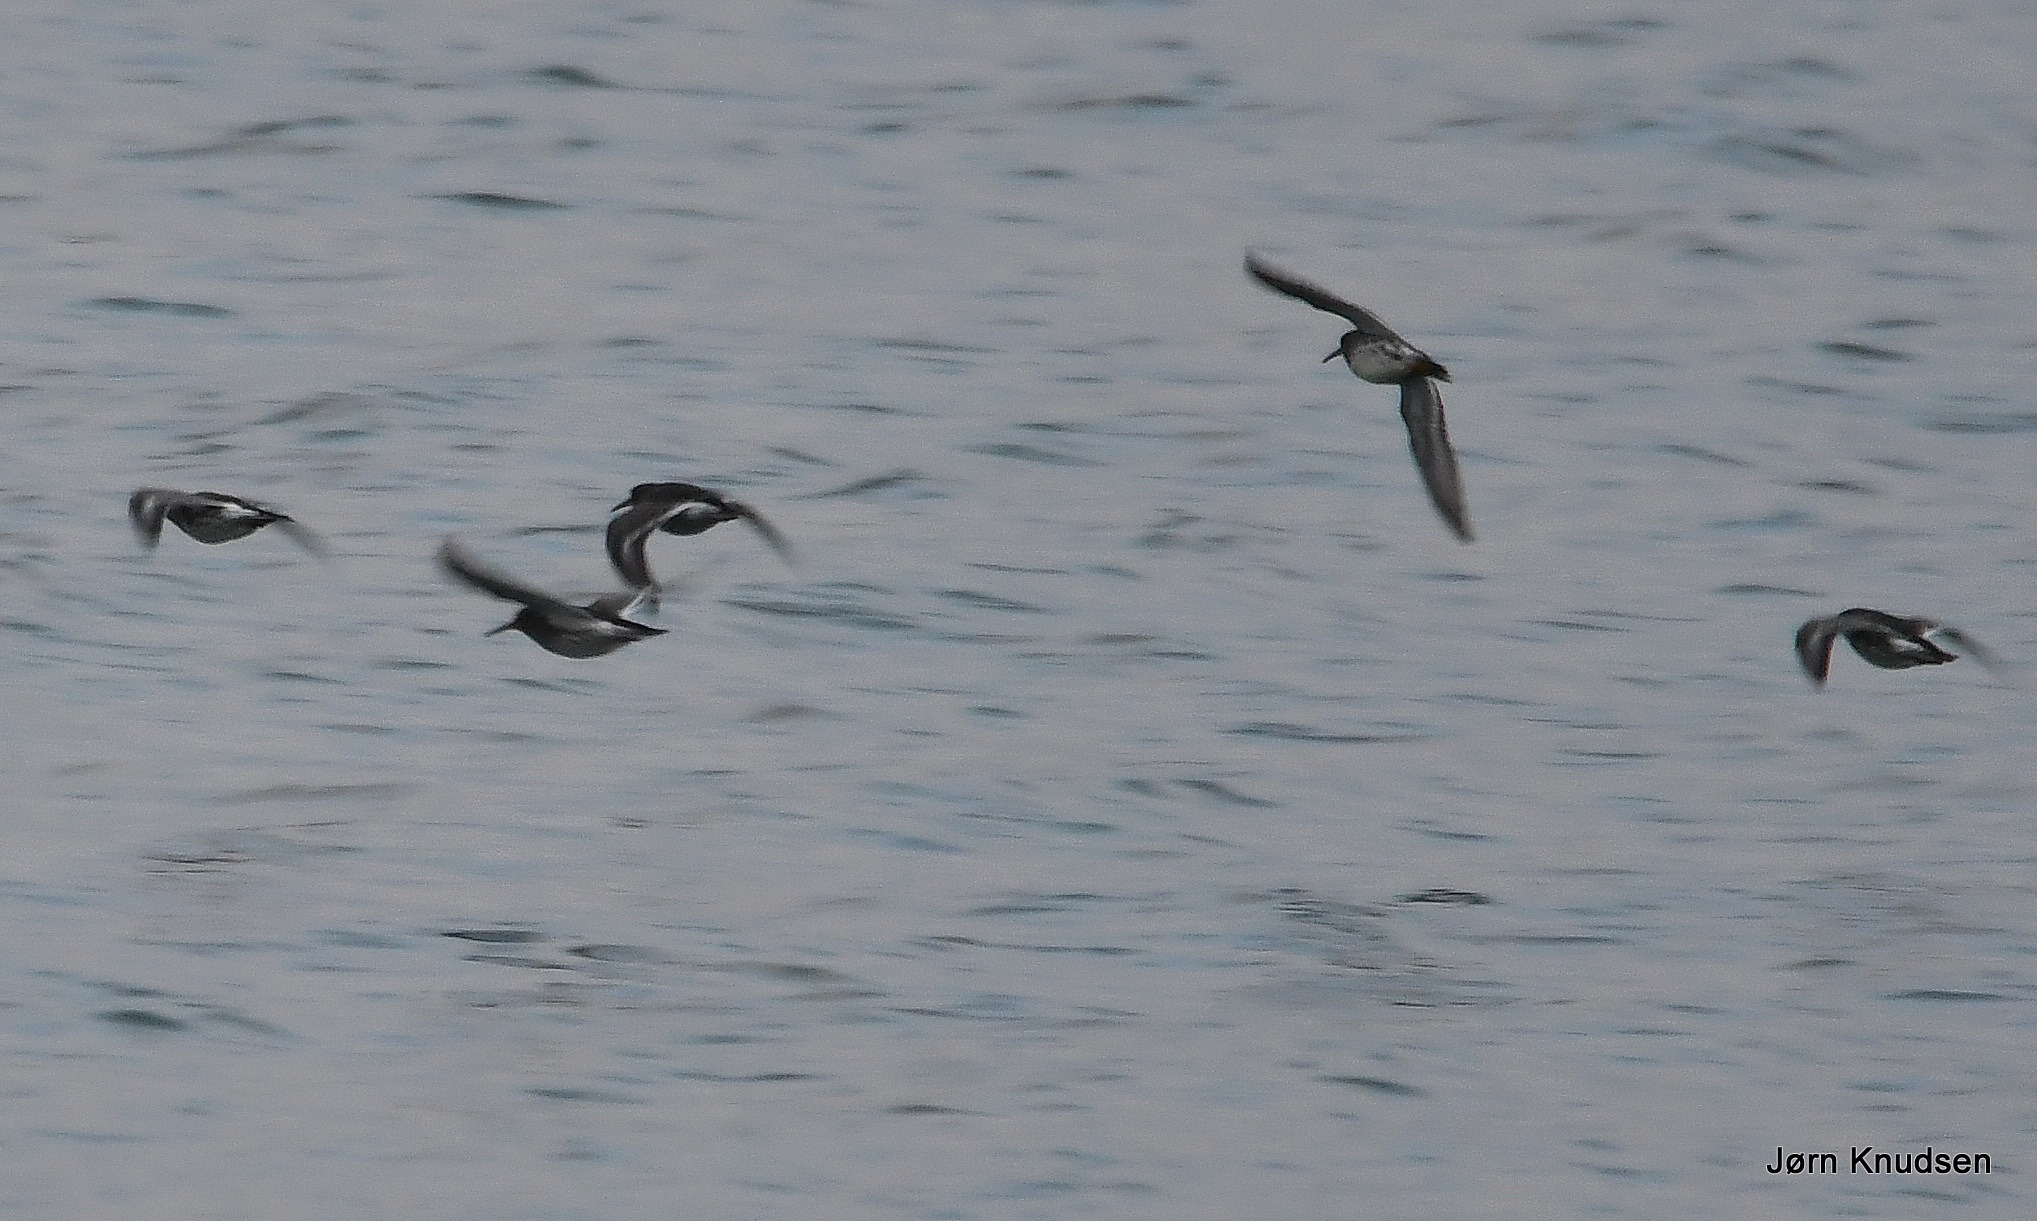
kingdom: Animalia
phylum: Chordata
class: Aves
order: Charadriiformes
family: Scolopacidae
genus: Calidris
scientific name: Calidris maritima
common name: Sortgrå ryle
